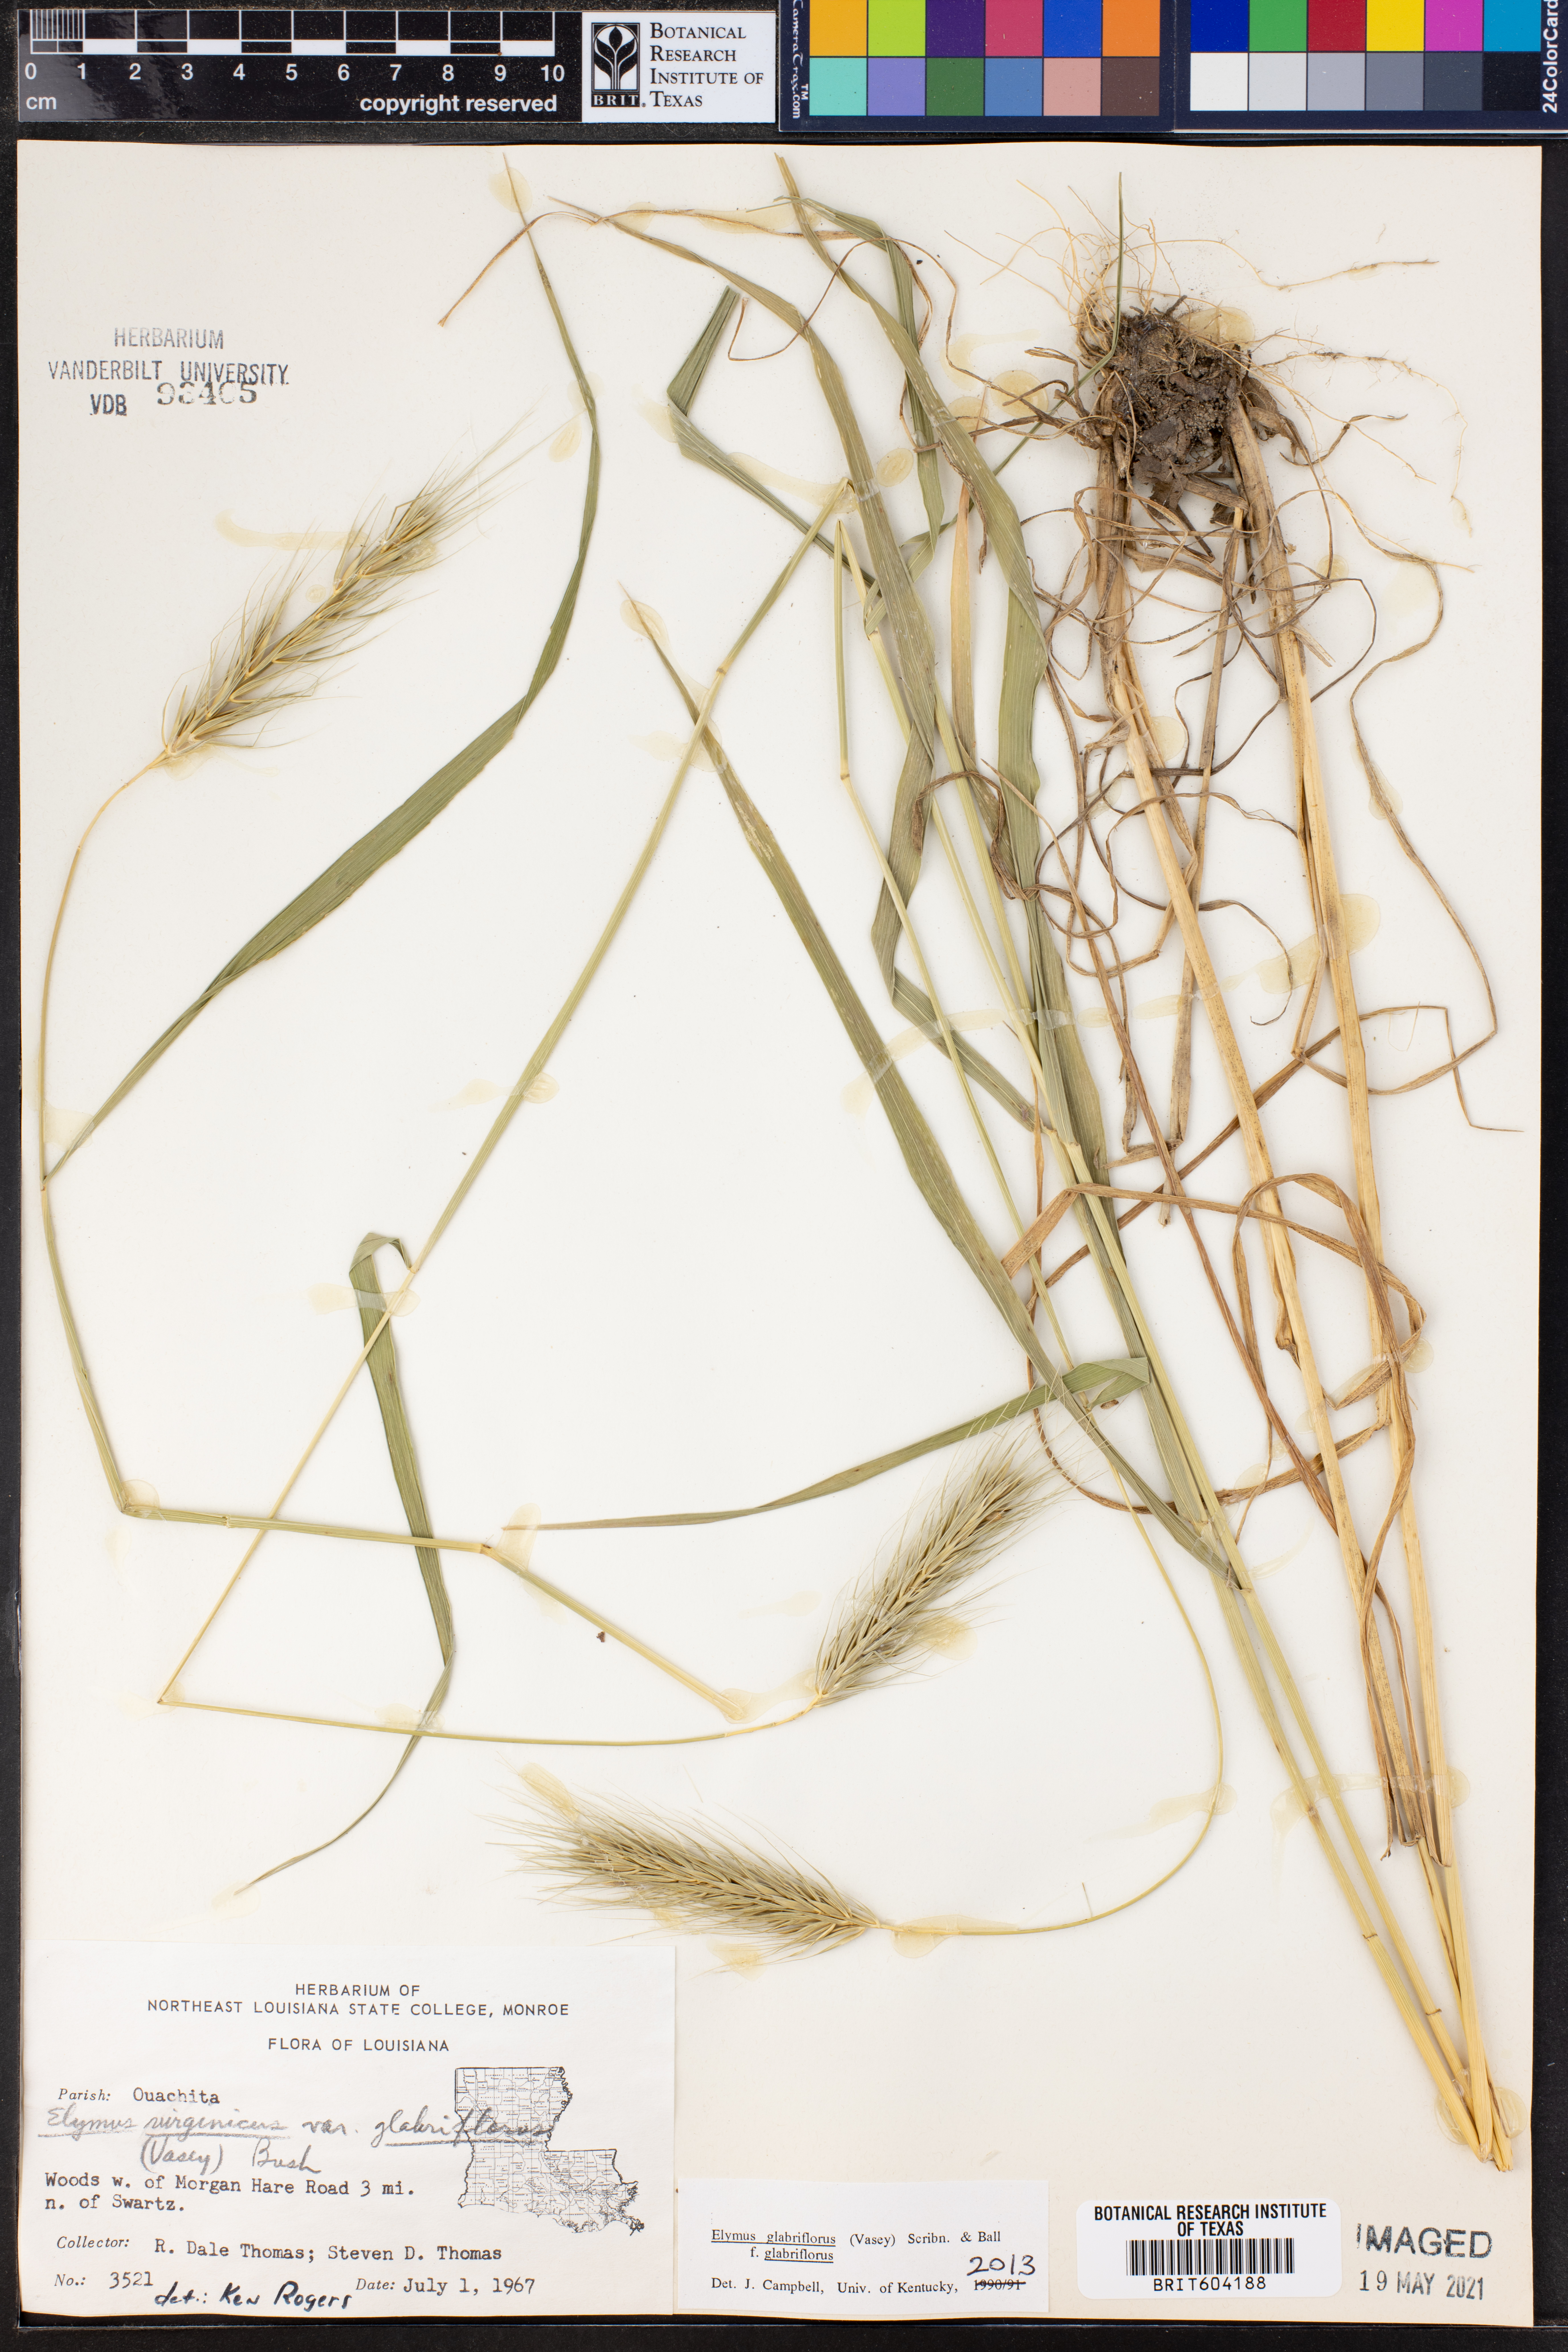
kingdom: Plantae
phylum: Tracheophyta
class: Liliopsida
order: Poales
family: Poaceae
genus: Elymus
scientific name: Elymus virginicus
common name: Common eastern wildrye
